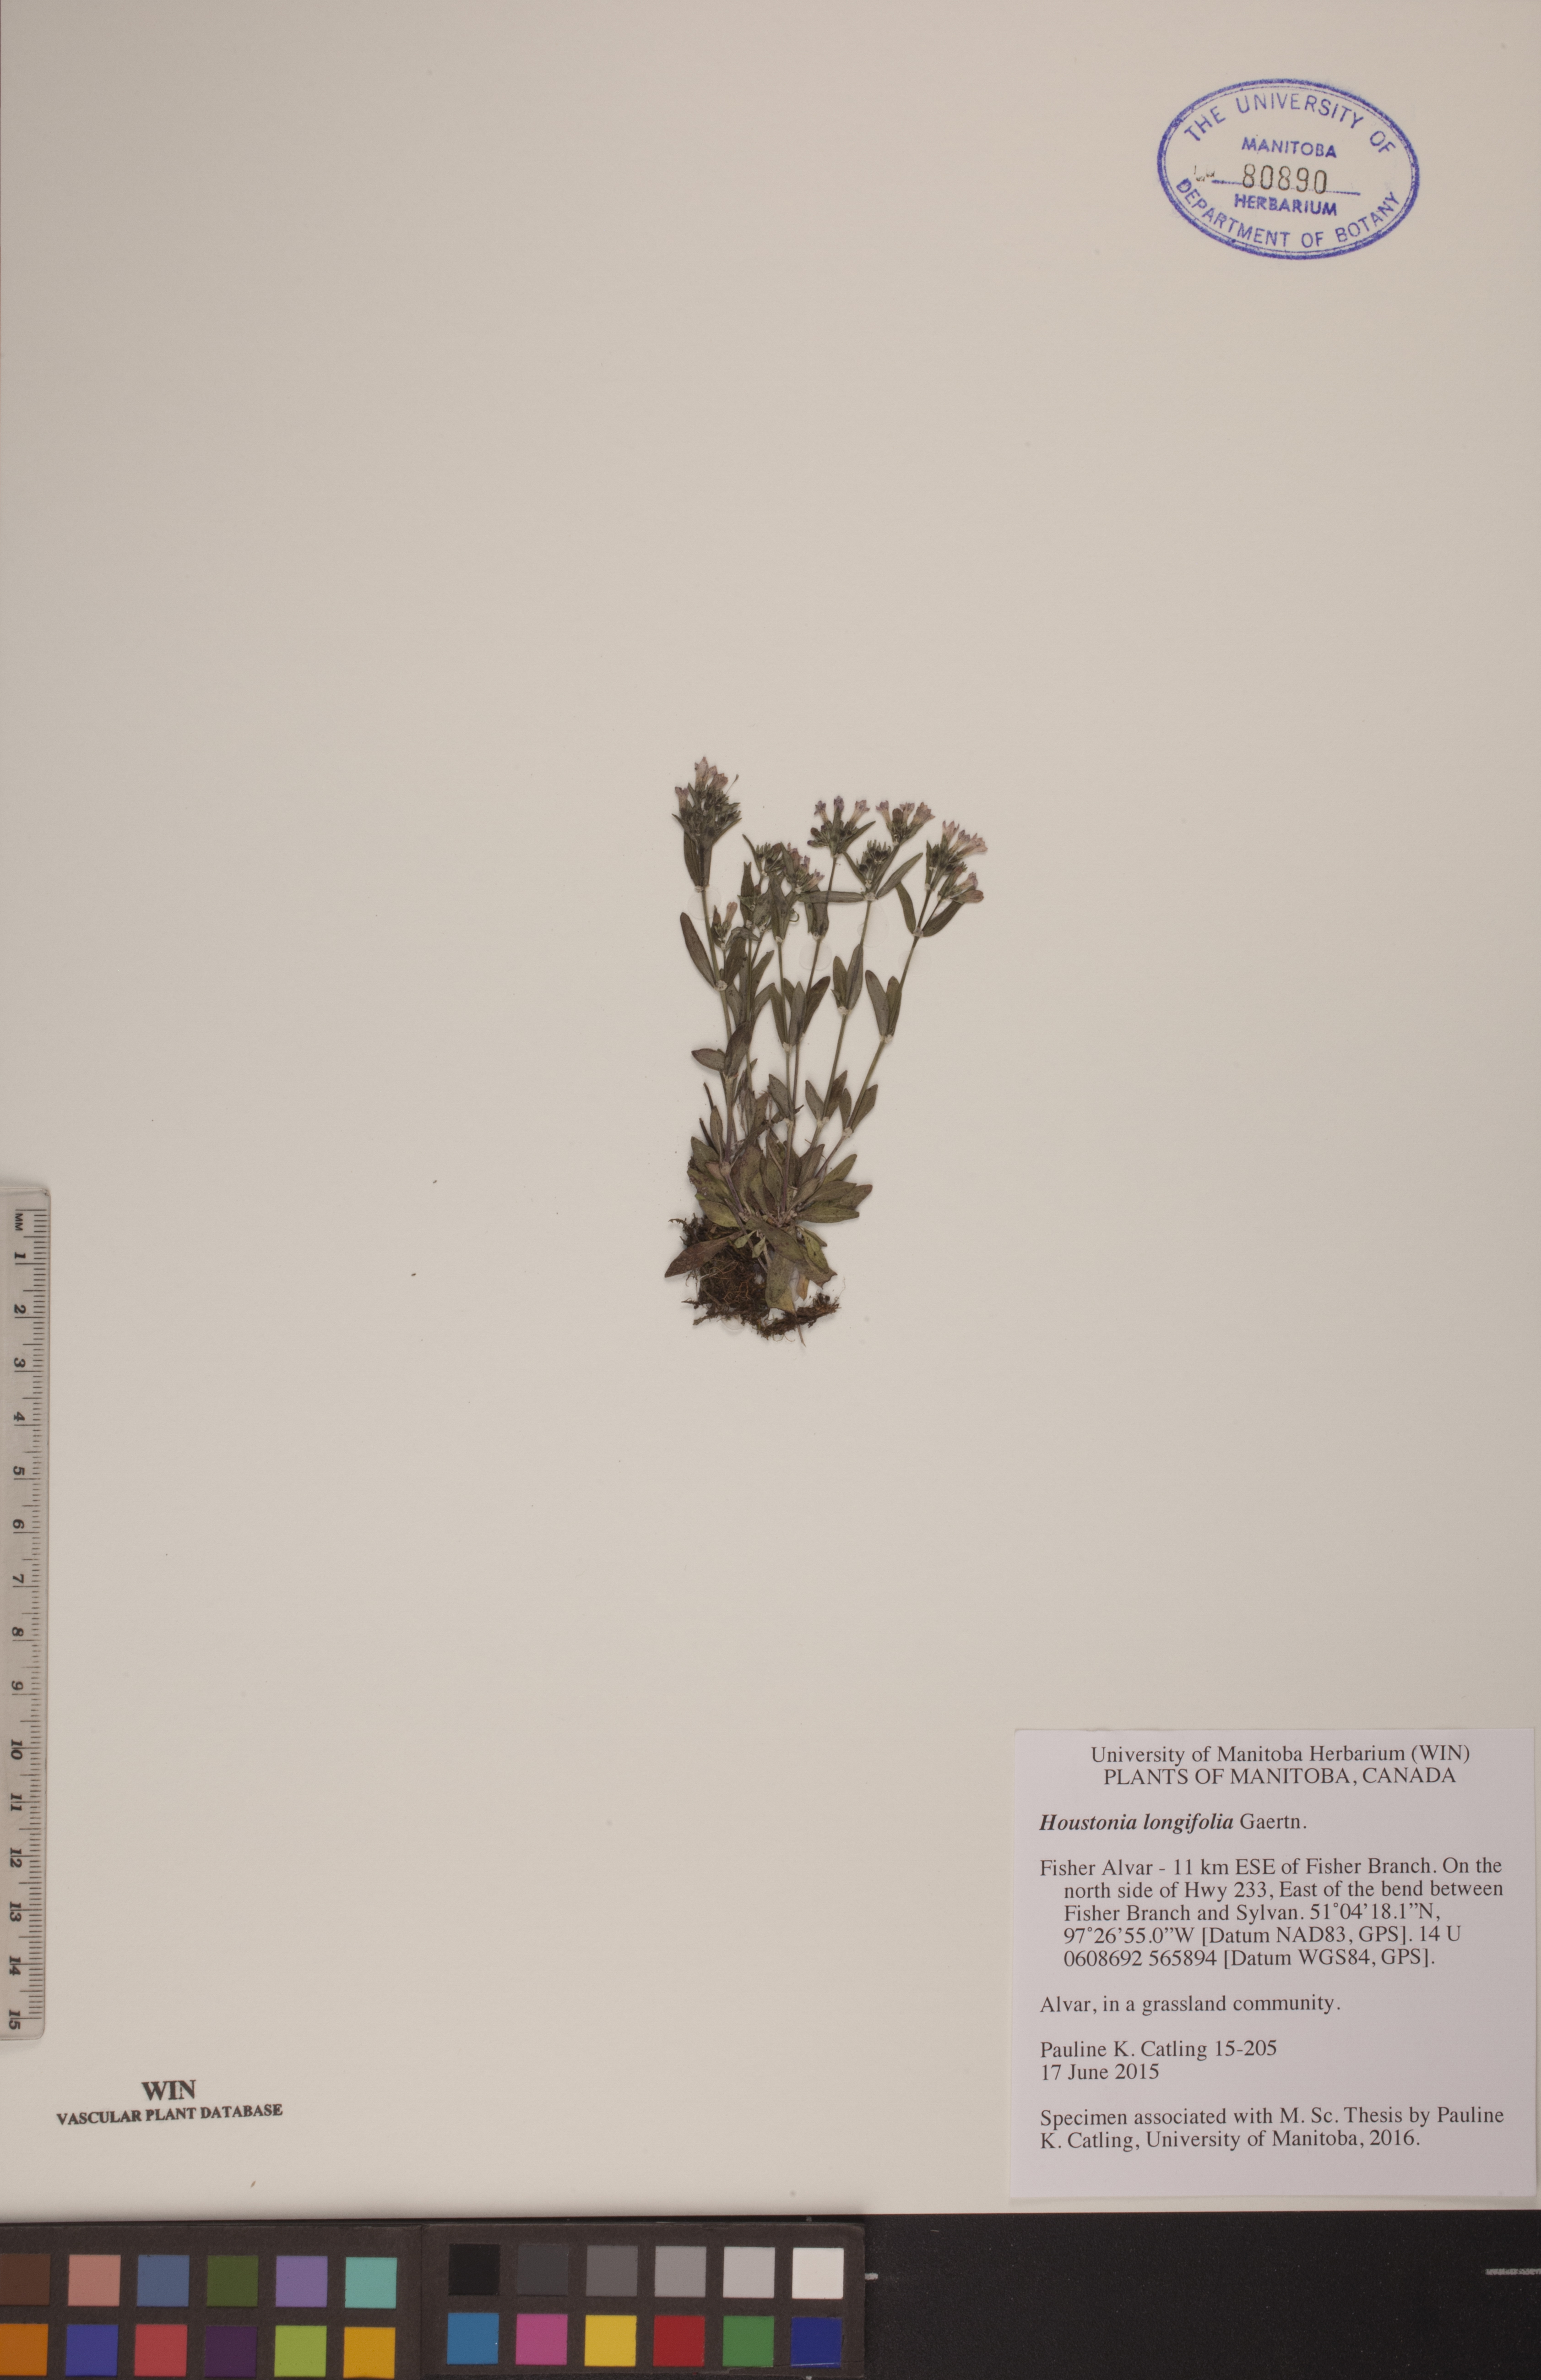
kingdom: Plantae
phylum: Tracheophyta
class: Magnoliopsida
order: Gentianales
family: Rubiaceae
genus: Houstonia
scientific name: Houstonia longifolia
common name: Long-leaved bluets
